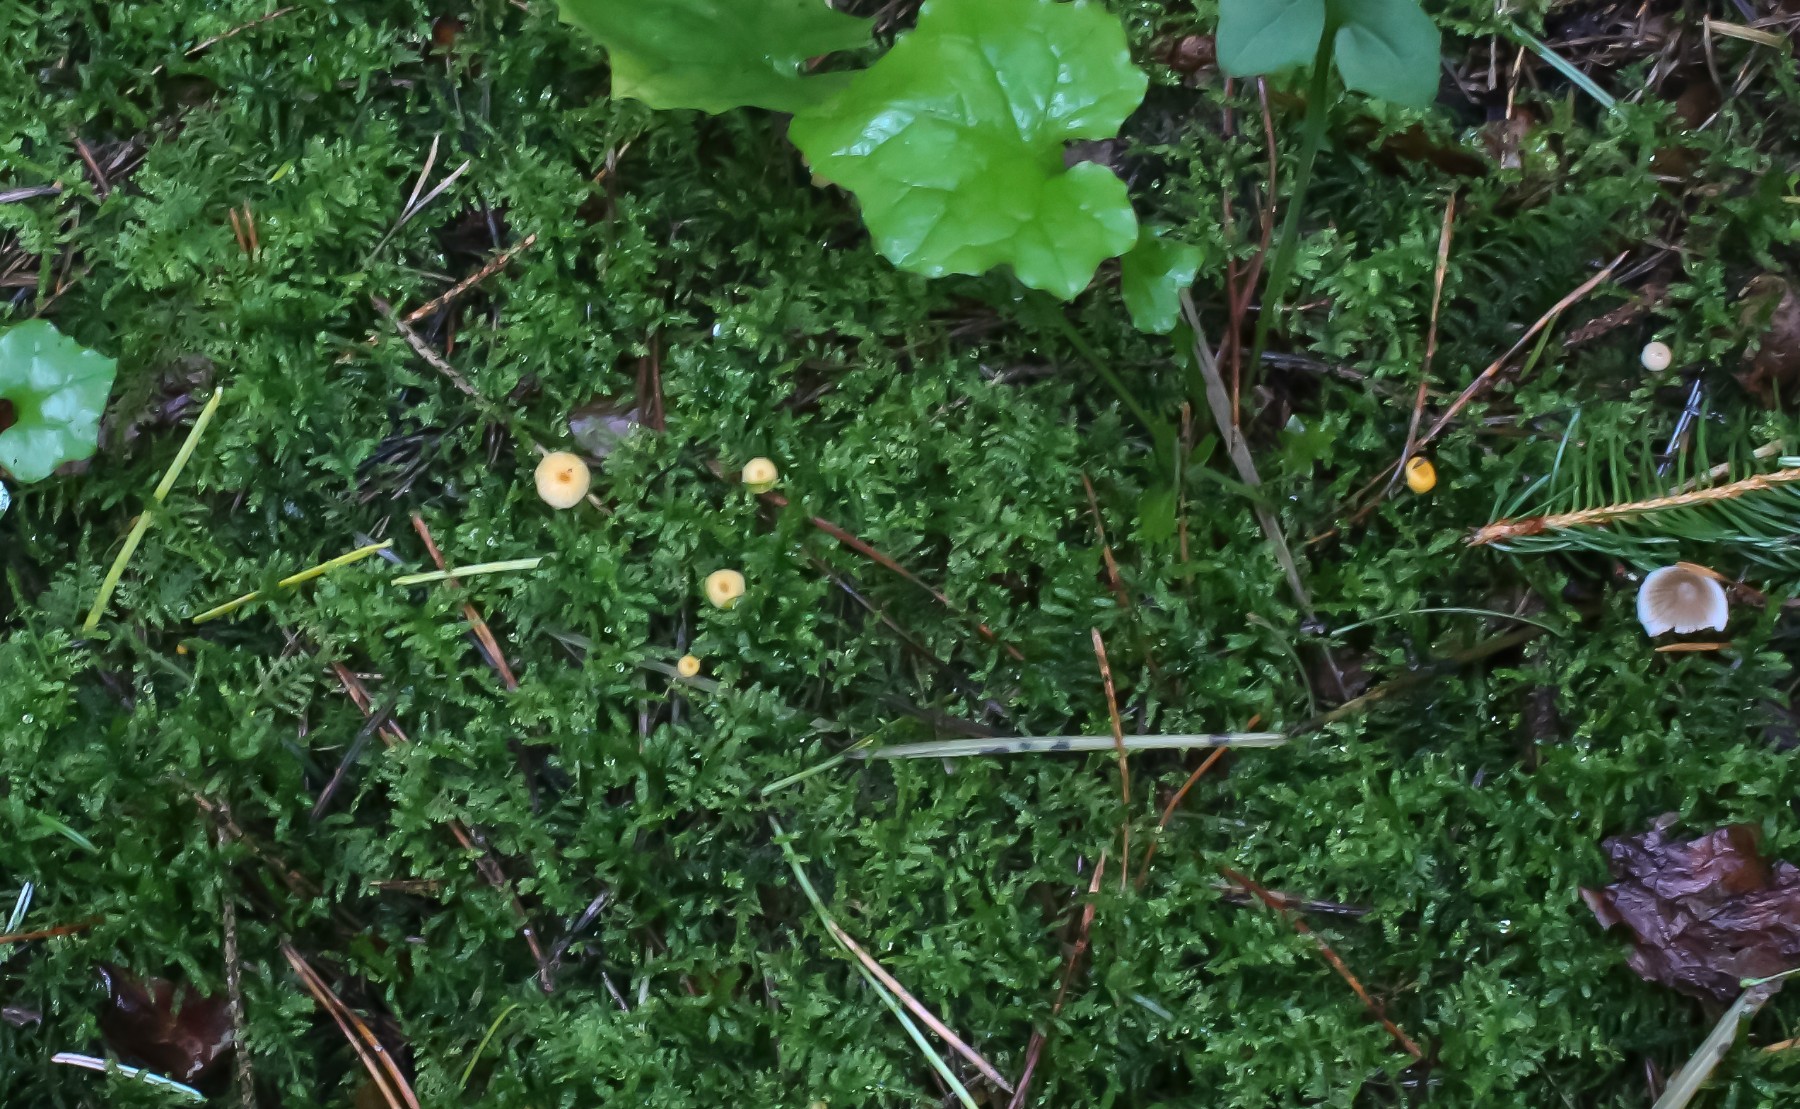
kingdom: Fungi
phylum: Basidiomycota
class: Agaricomycetes
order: Hymenochaetales
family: Rickenellaceae
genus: Rickenella
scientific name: Rickenella fibula
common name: orange mosnavlehat
